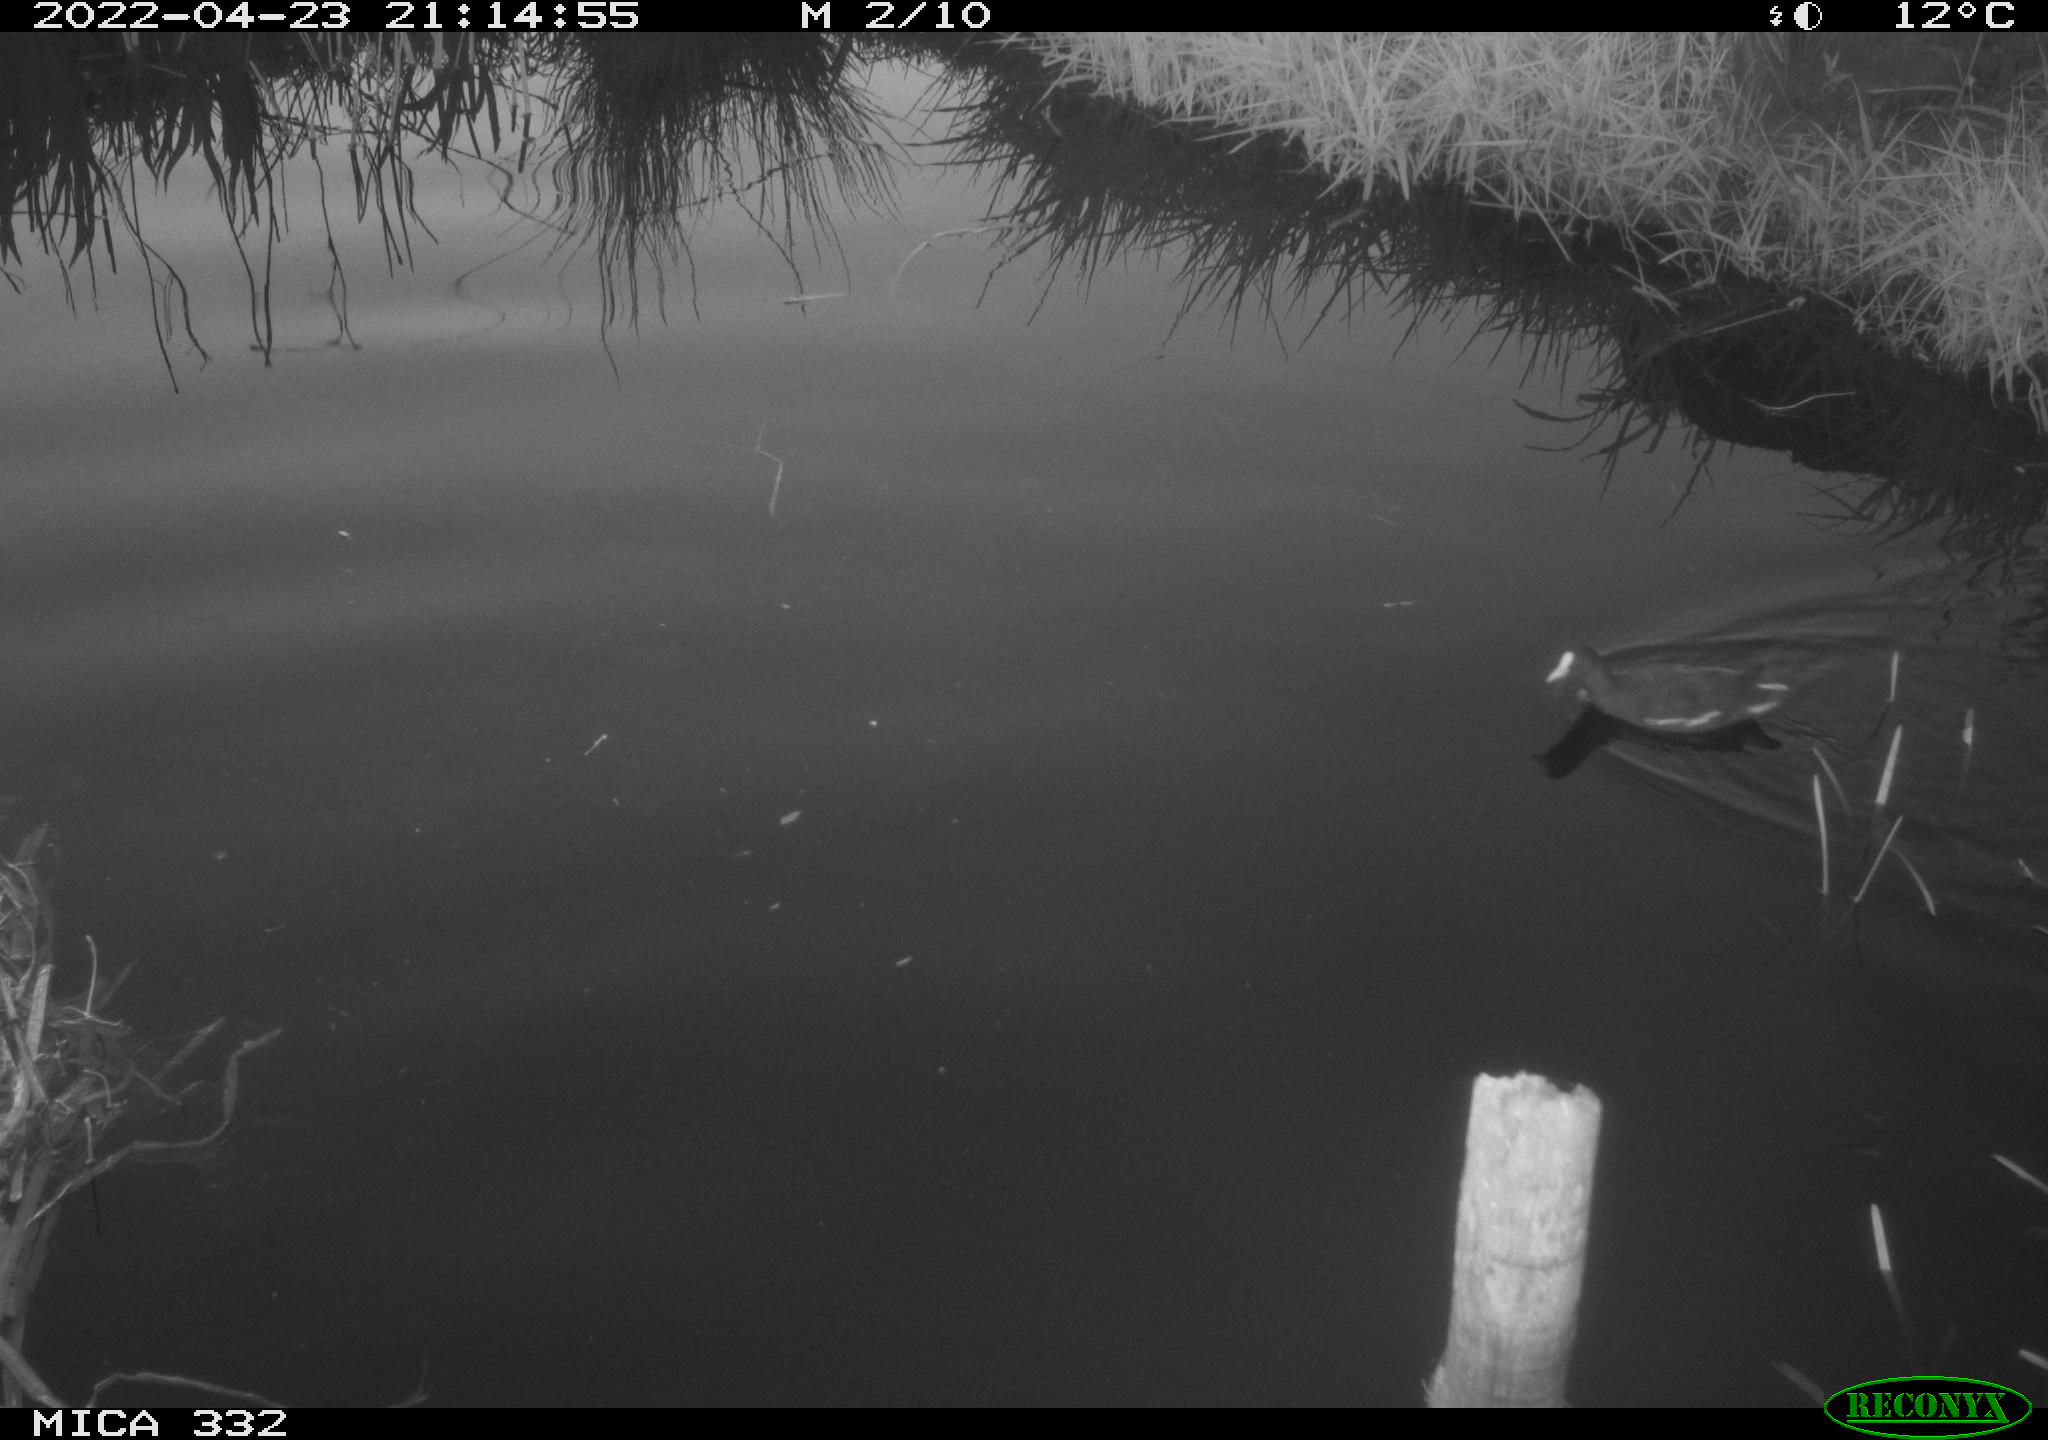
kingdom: Animalia
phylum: Chordata
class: Aves
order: Gruiformes
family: Rallidae
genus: Gallinula
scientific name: Gallinula chloropus
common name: Common moorhen
